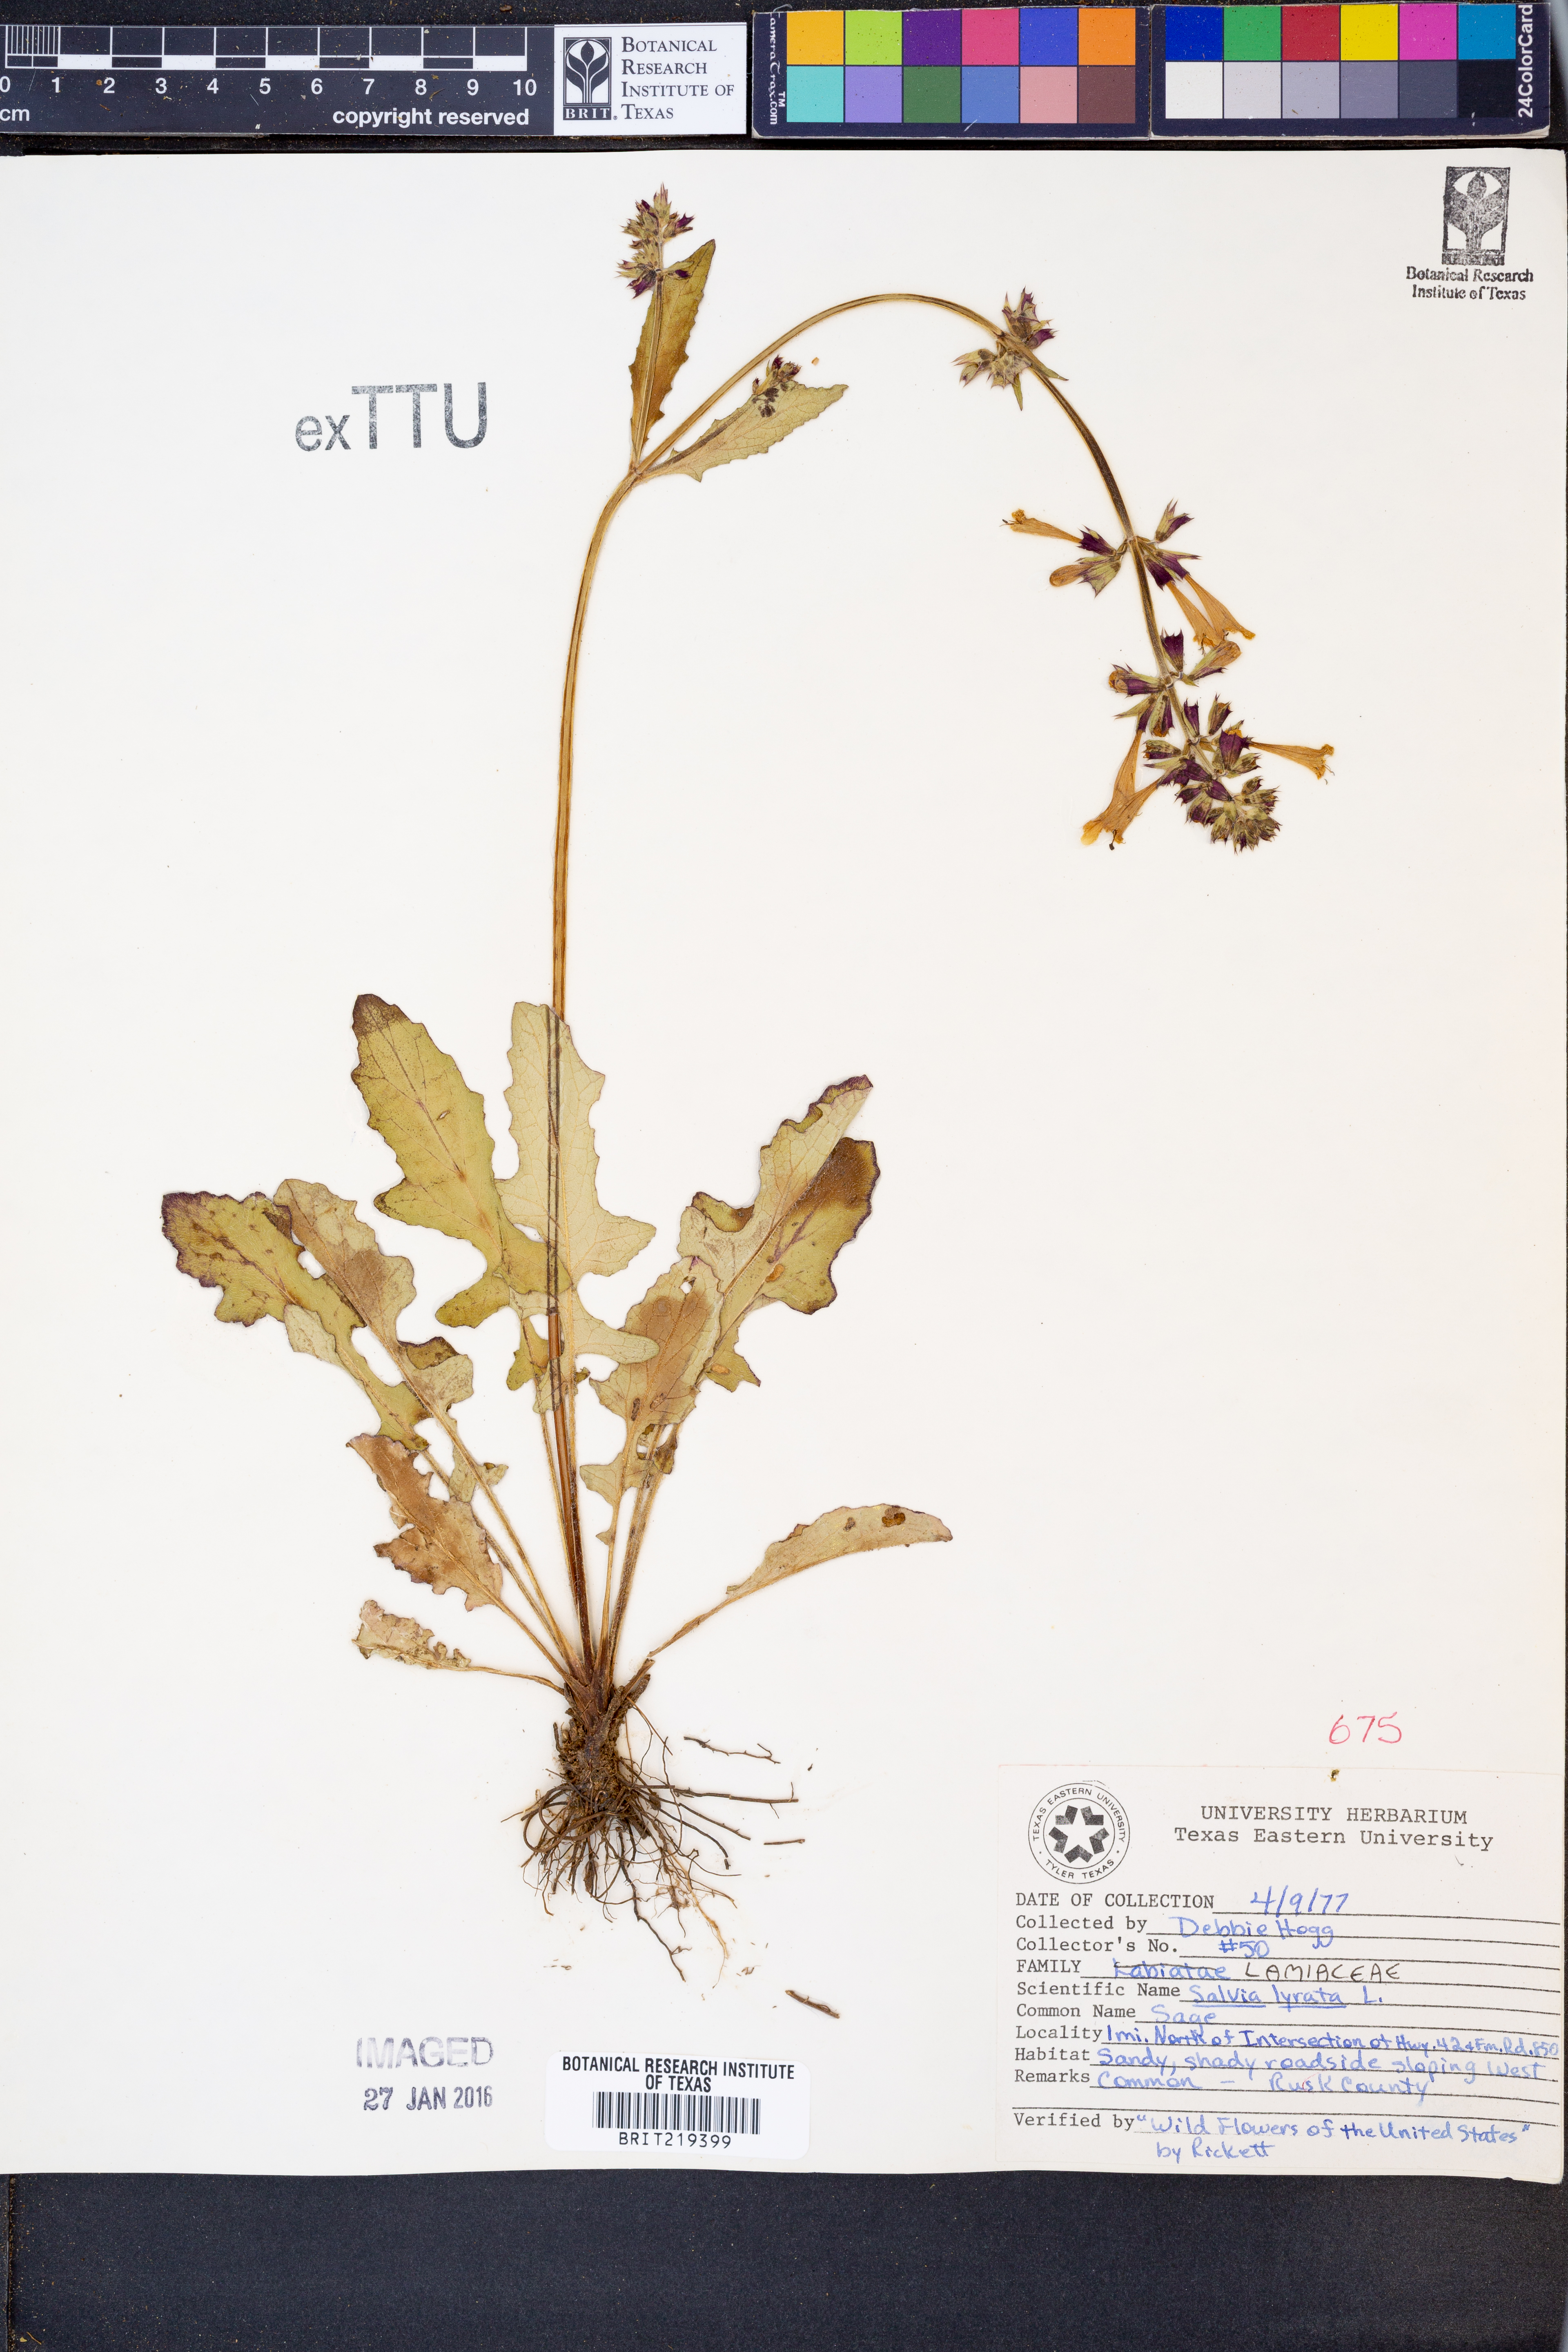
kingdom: Plantae
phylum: Tracheophyta
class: Magnoliopsida
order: Lamiales
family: Lamiaceae
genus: Salvia
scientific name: Salvia lyrata
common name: Cancerweed
